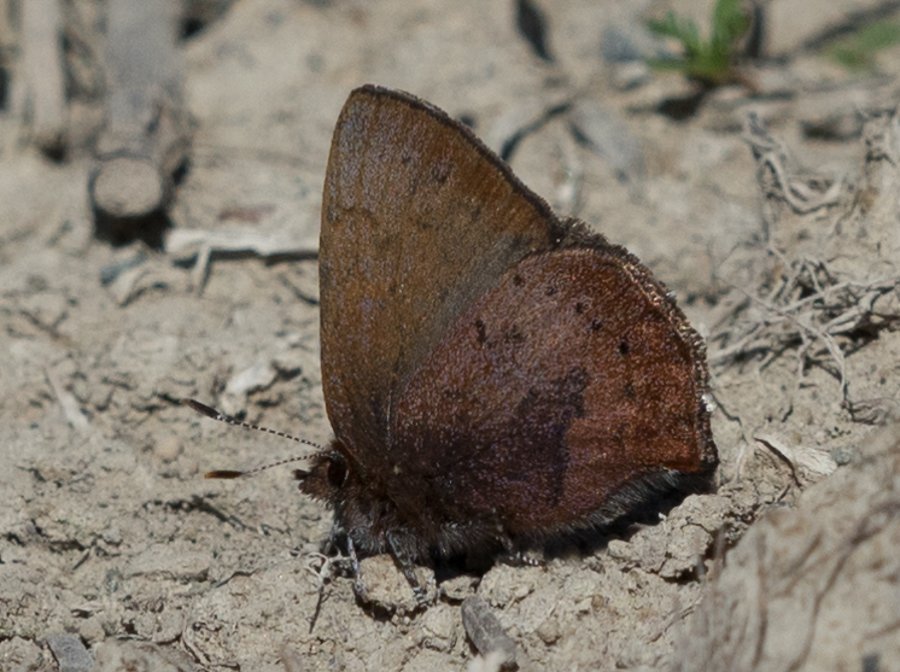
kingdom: Animalia
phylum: Arthropoda
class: Insecta
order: Lepidoptera
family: Lycaenidae
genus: Incisalia
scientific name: Incisalia irioides
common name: Brown Elfin
